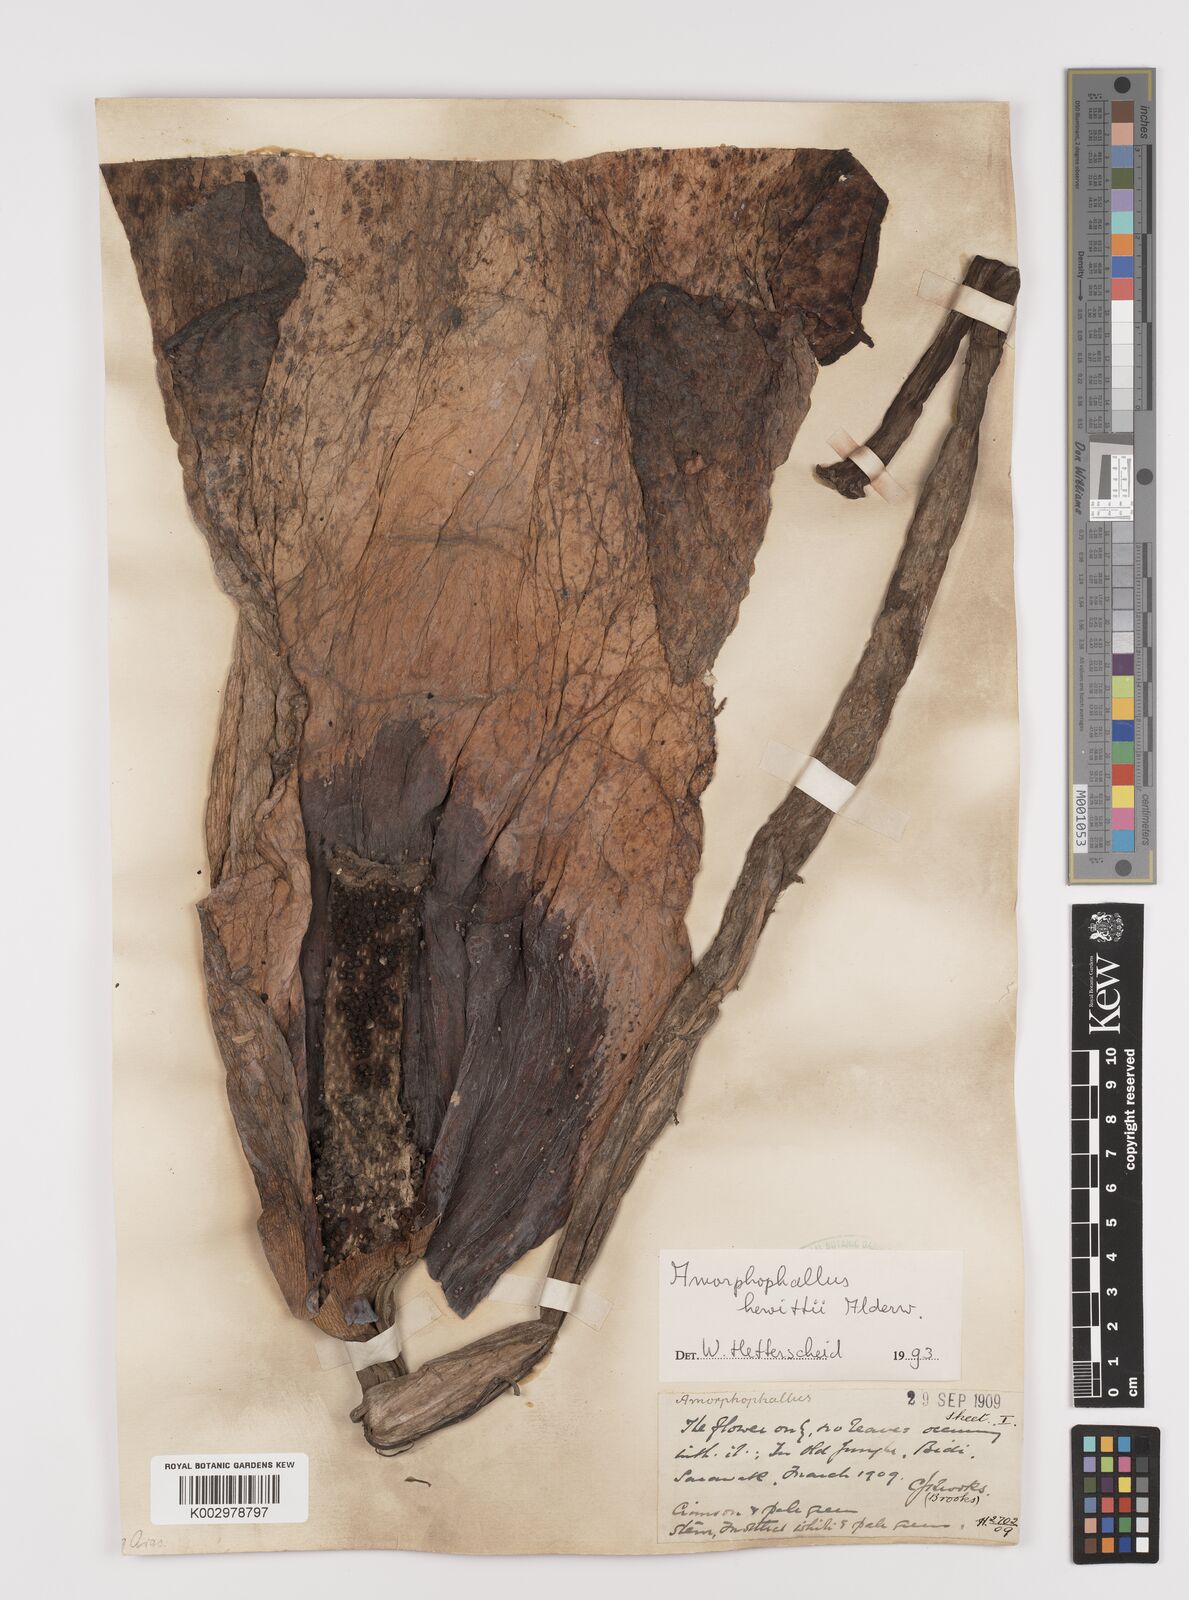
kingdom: Plantae
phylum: Tracheophyta
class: Liliopsida
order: Alismatales
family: Araceae
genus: Amorphophallus
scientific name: Amorphophallus hewittii
